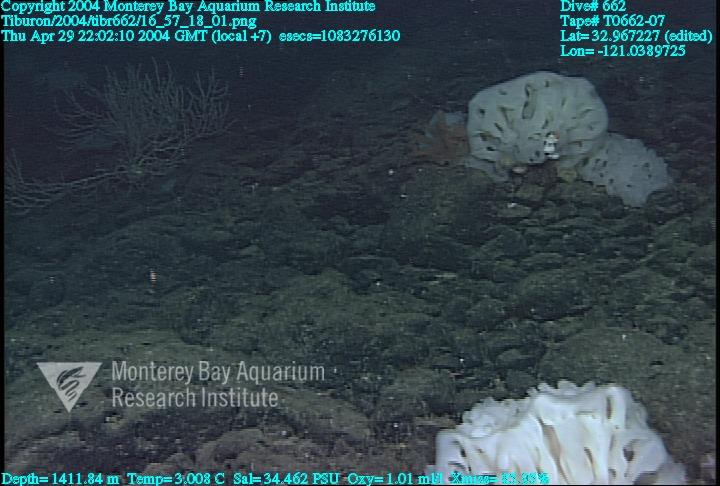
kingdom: Animalia
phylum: Porifera
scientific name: Porifera
